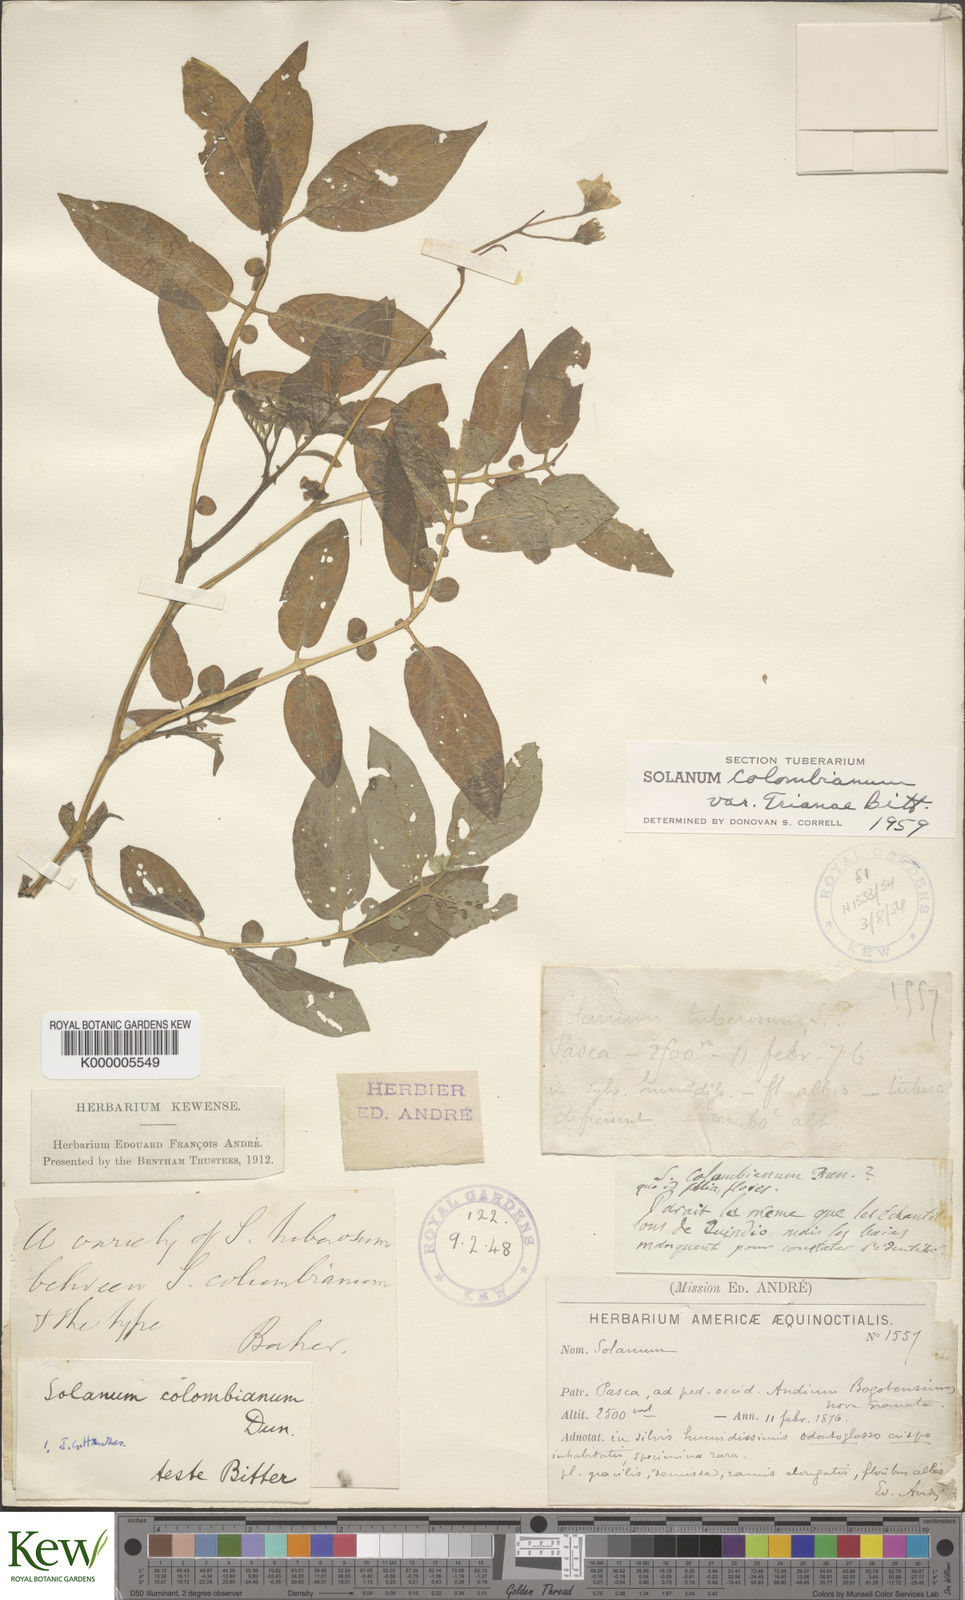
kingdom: Plantae
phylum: Tracheophyta
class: Magnoliopsida
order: Solanales
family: Solanaceae
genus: Solanum
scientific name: Solanum colombianum
